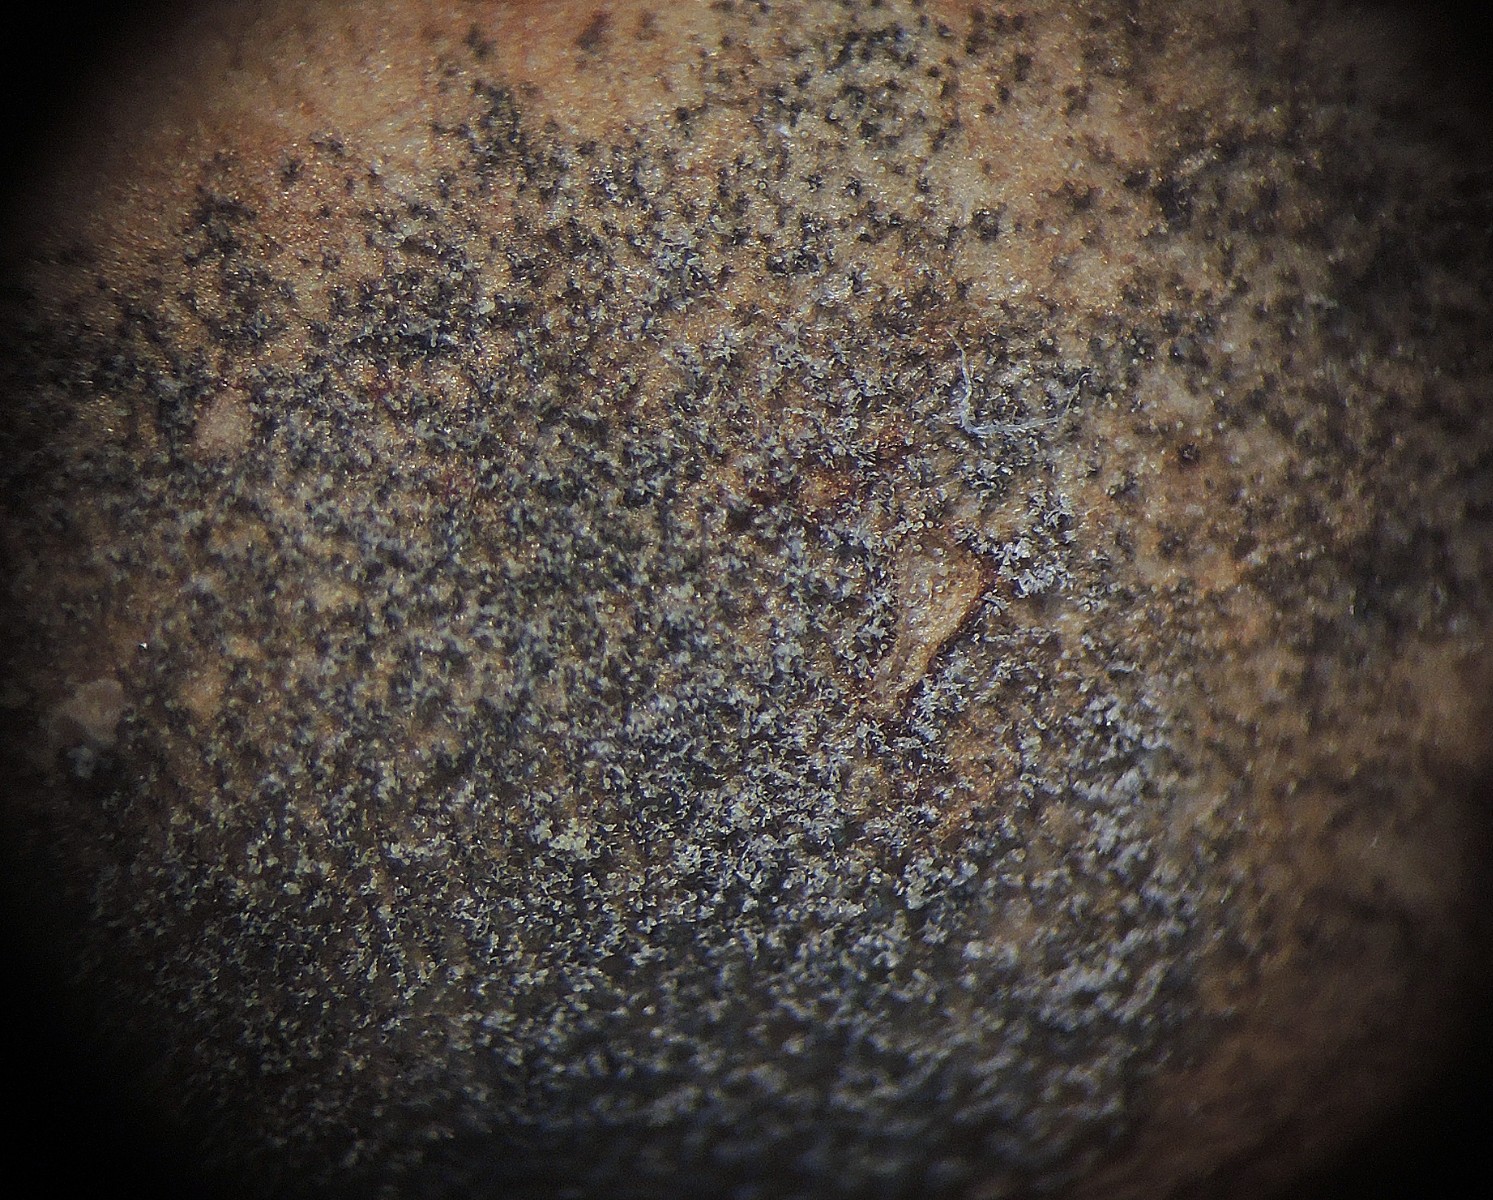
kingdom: Fungi
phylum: Ascomycota
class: Dothideomycetes
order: Mycosphaerellales
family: Mycosphaerellaceae
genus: Passalora
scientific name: Passalora dubia
